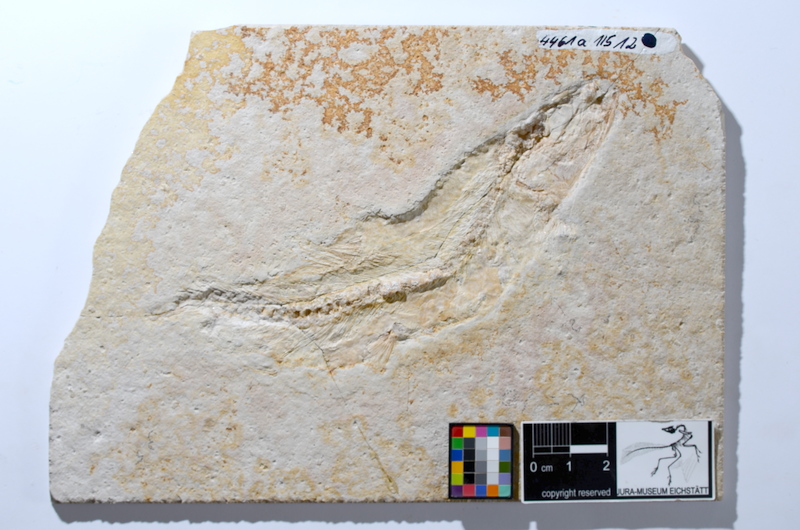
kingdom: Animalia
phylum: Chordata
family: Ascalaboidae
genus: Tharsis
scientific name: Tharsis dubius
